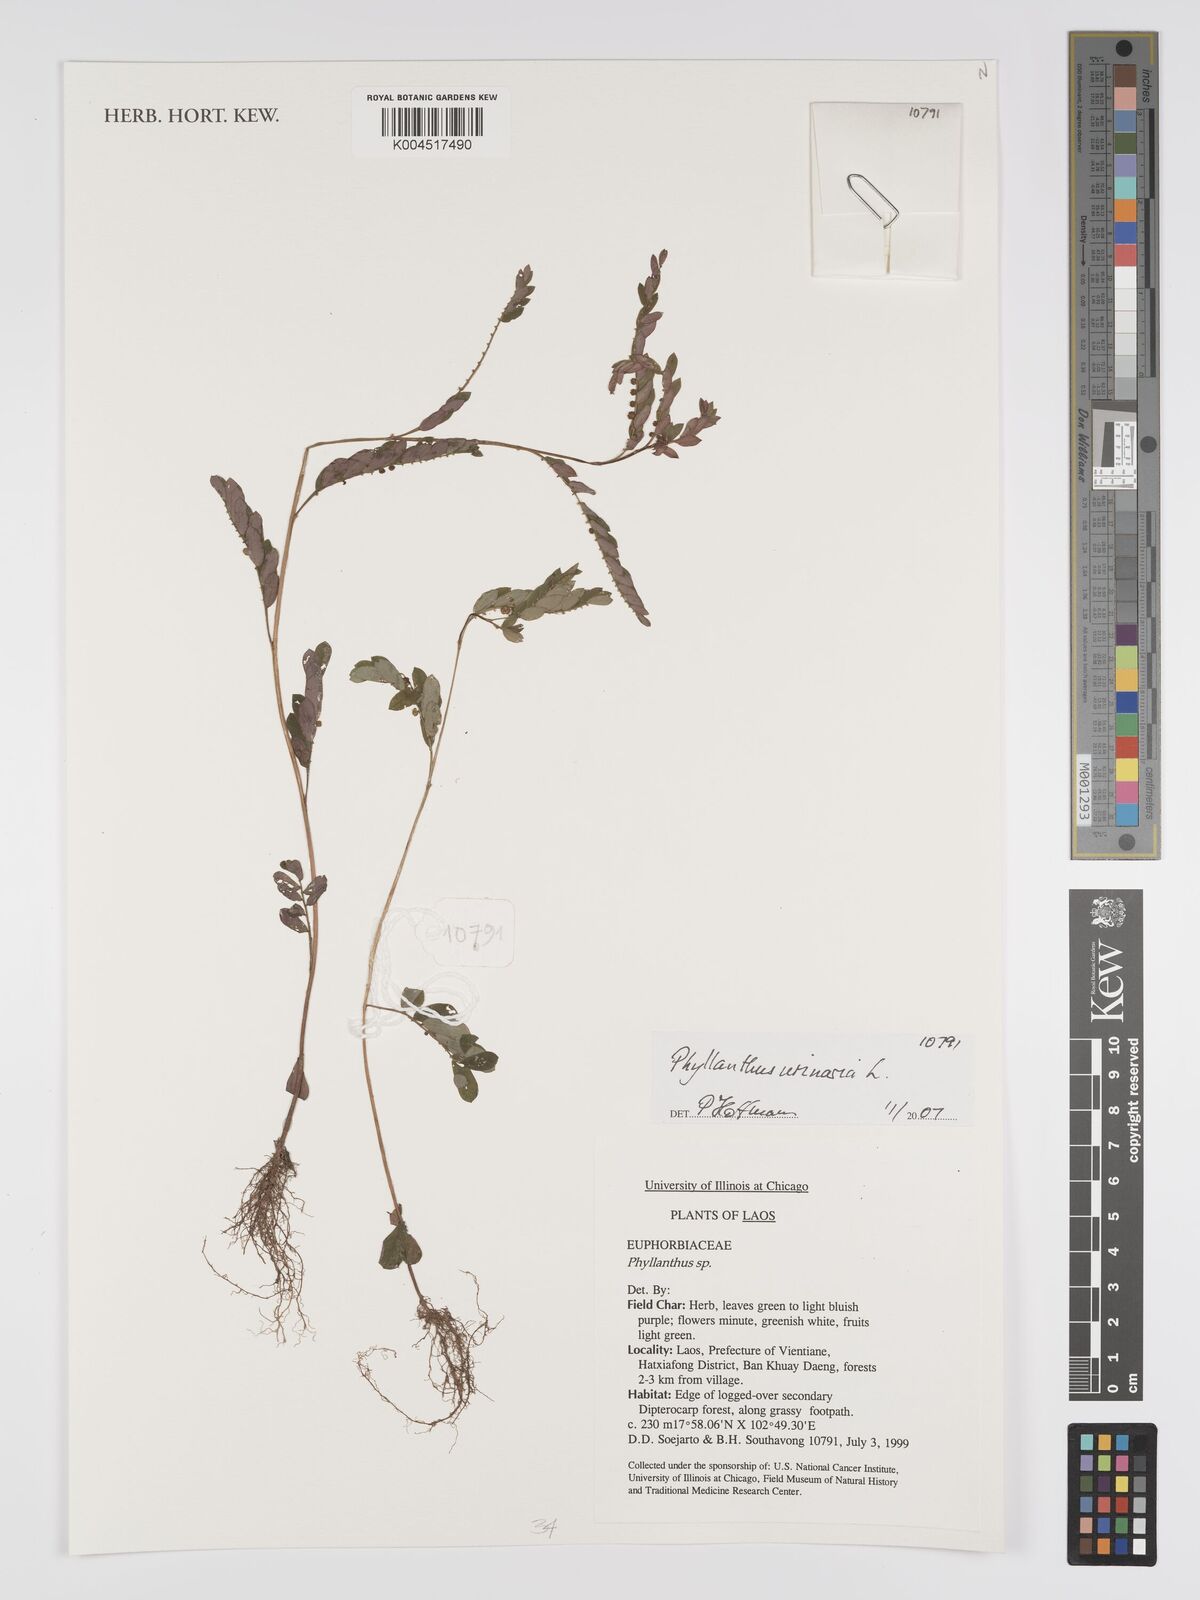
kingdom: Plantae
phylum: Tracheophyta
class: Magnoliopsida
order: Malpighiales
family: Phyllanthaceae
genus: Phyllanthus
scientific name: Phyllanthus urinaria
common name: Chamber bitter
